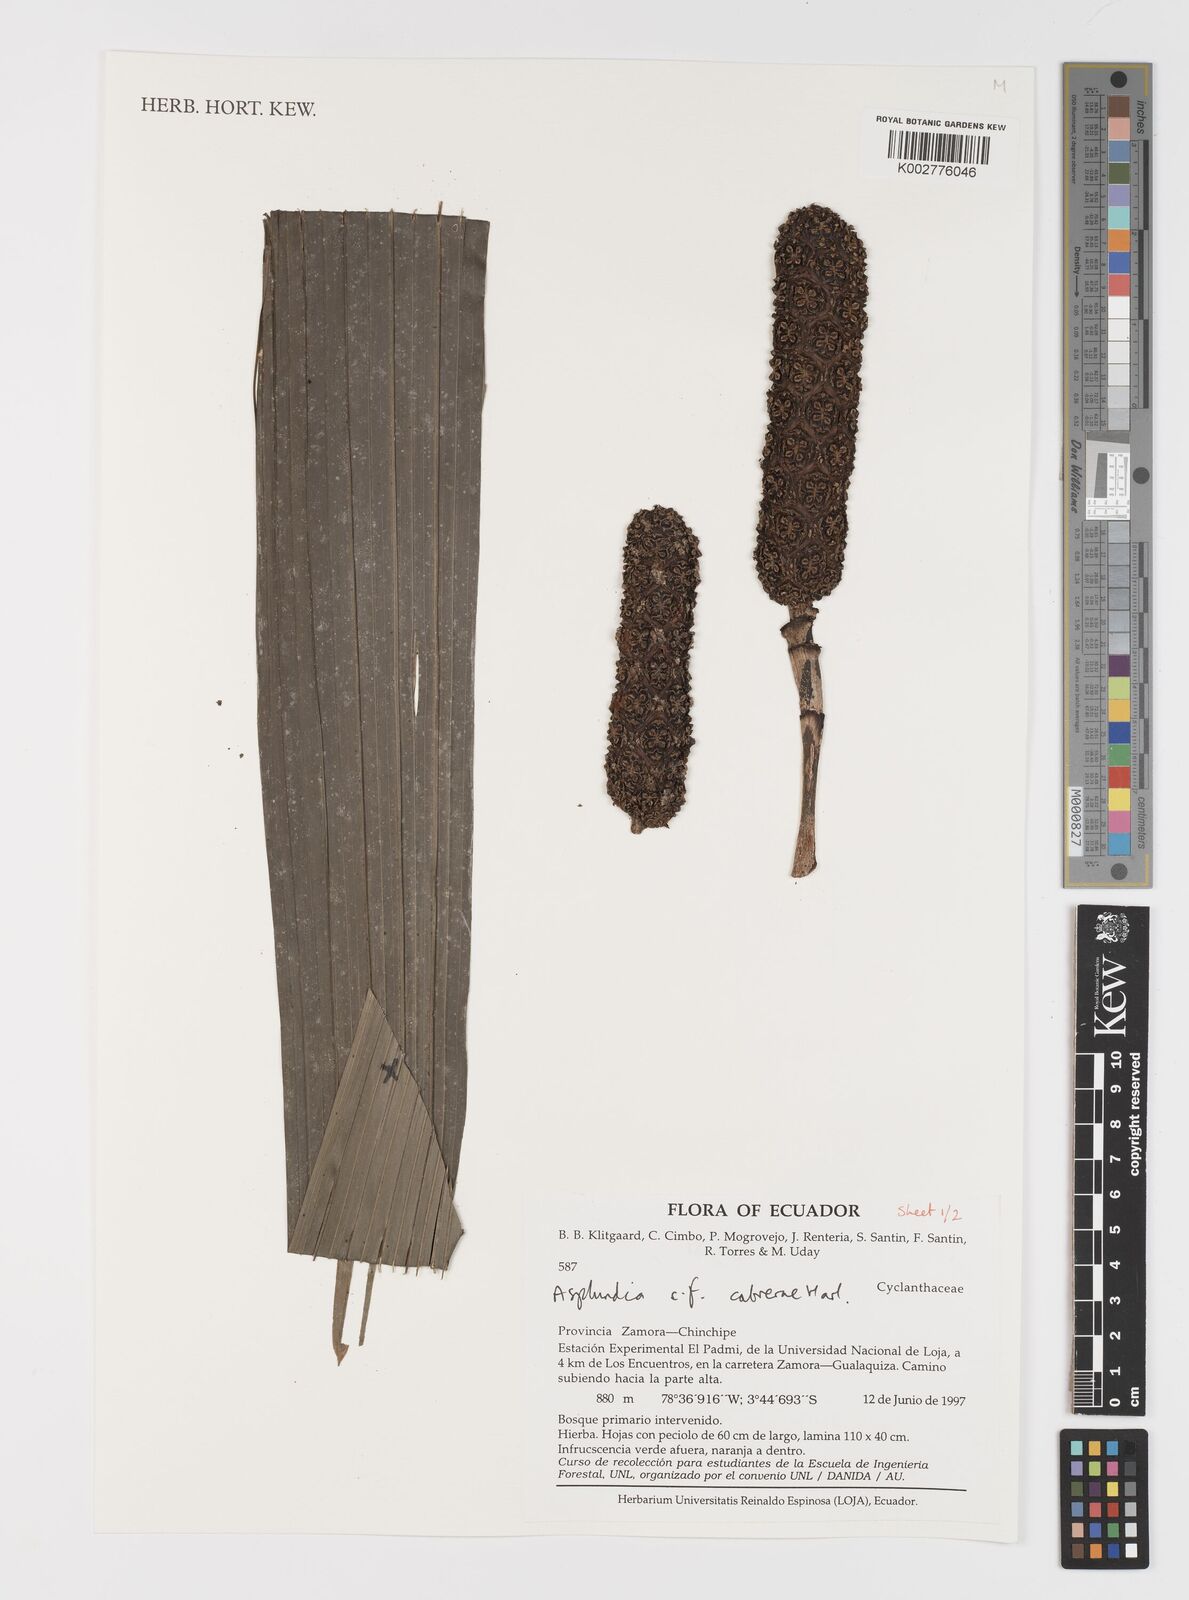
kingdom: Plantae
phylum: Tracheophyta
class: Liliopsida
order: Pandanales
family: Cyclanthaceae
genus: Asplundia
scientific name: Asplundia cabrerae
